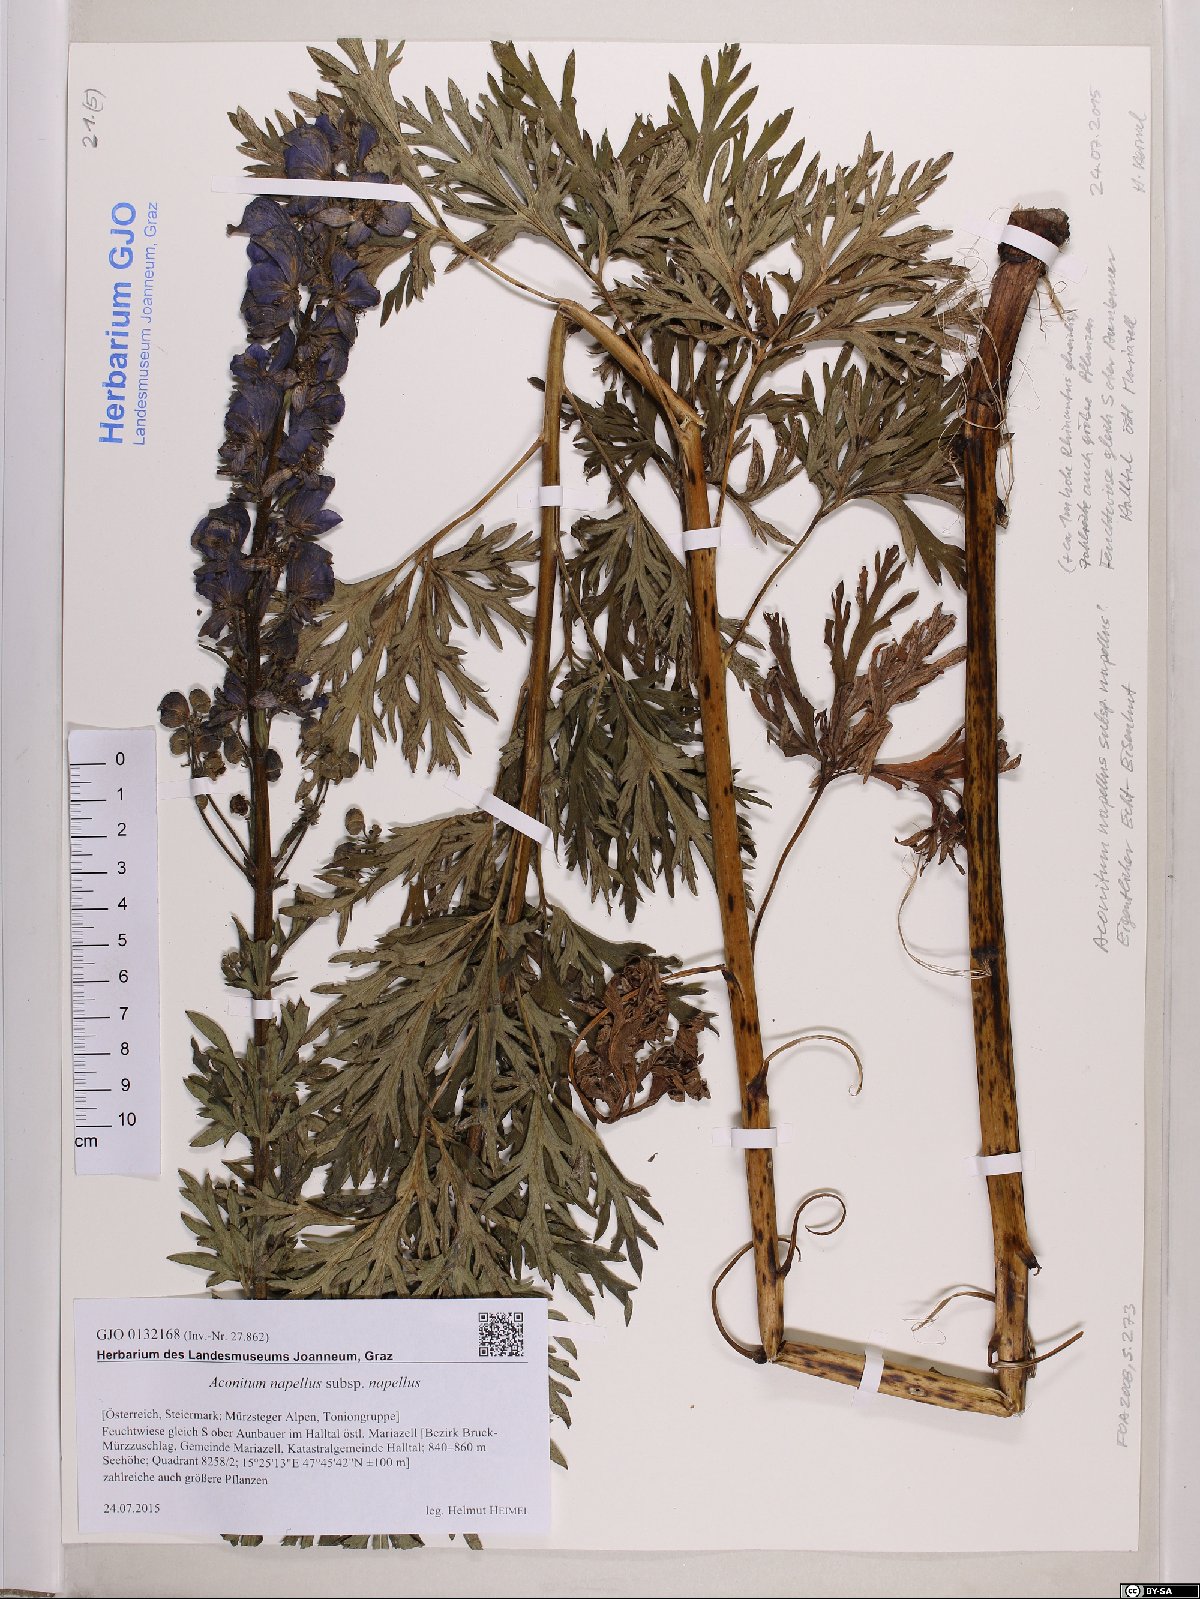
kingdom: Plantae
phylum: Tracheophyta
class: Magnoliopsida
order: Ranunculales
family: Ranunculaceae
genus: Aconitum
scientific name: Aconitum napellus
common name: Garden monkshood
